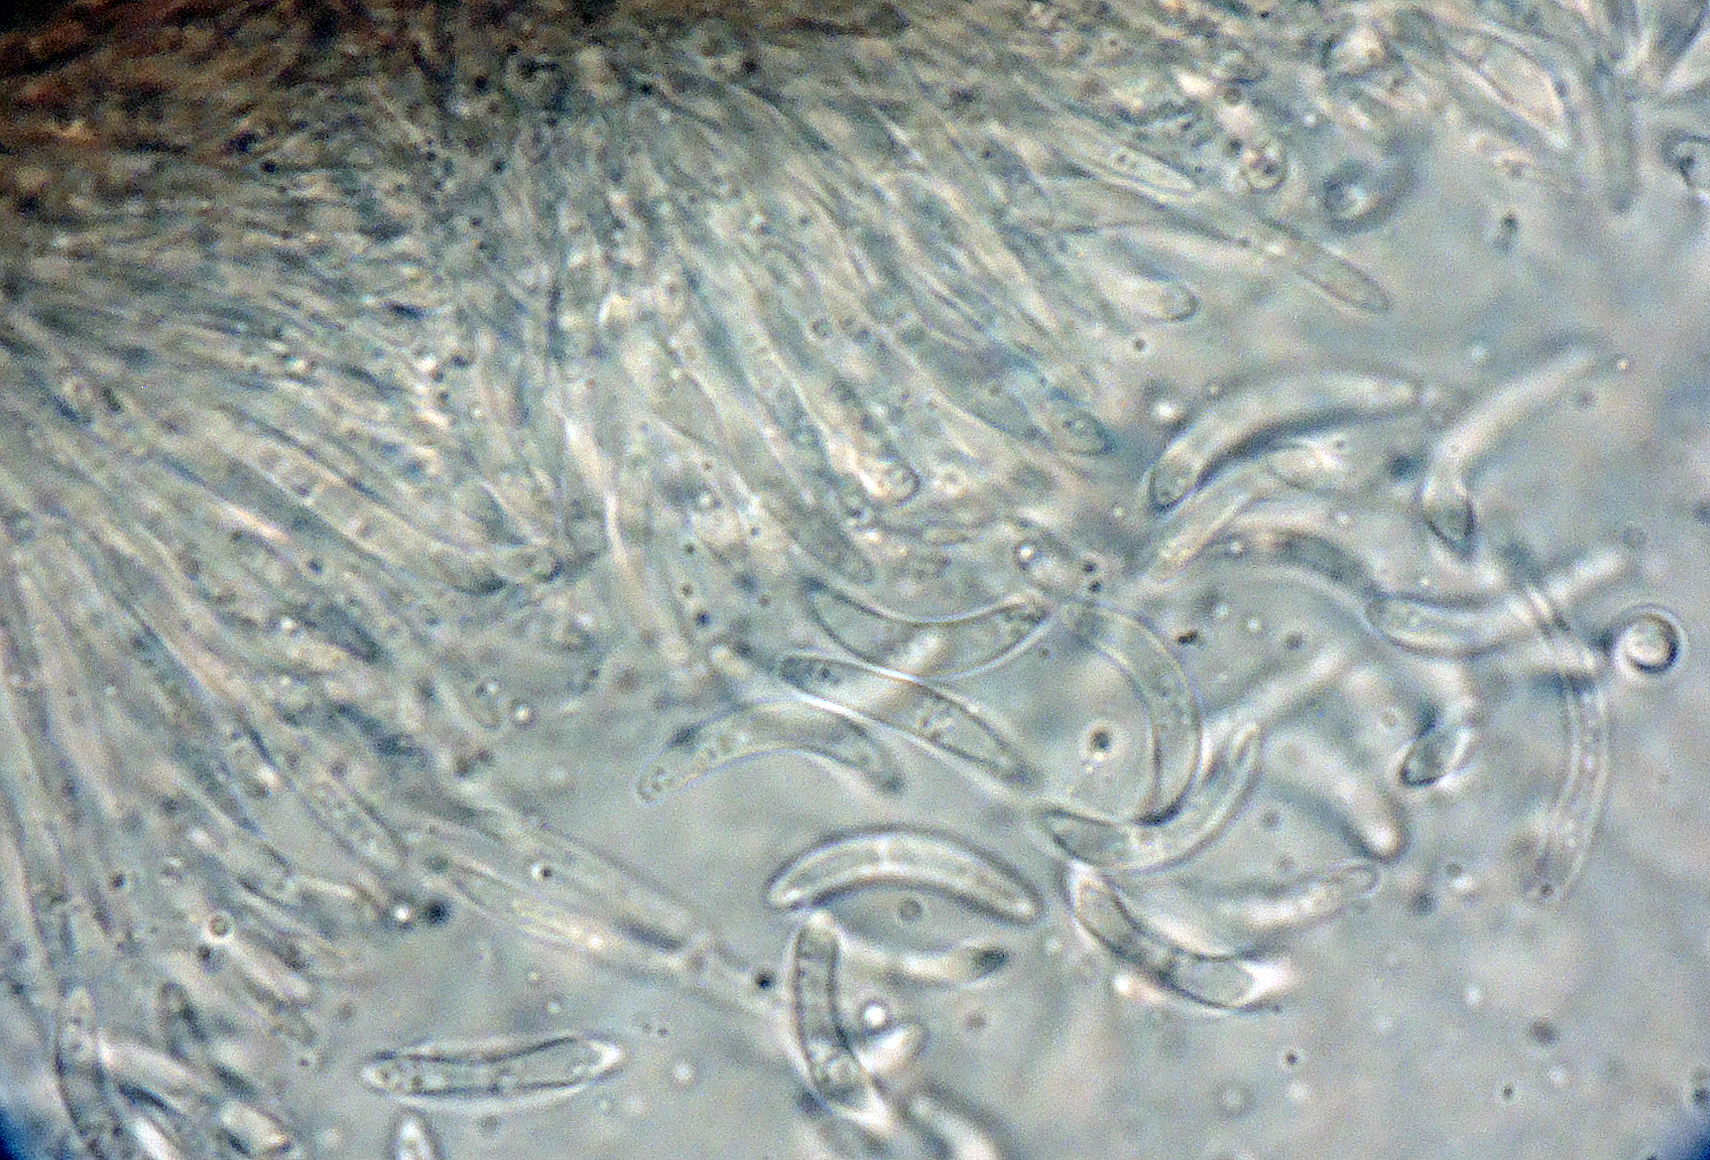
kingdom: Fungi
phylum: Ascomycota
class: Leotiomycetes
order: Helotiales
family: Godroniaceae
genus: Godronia
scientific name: Godronia callunigera
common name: hedelyng-urneskive
